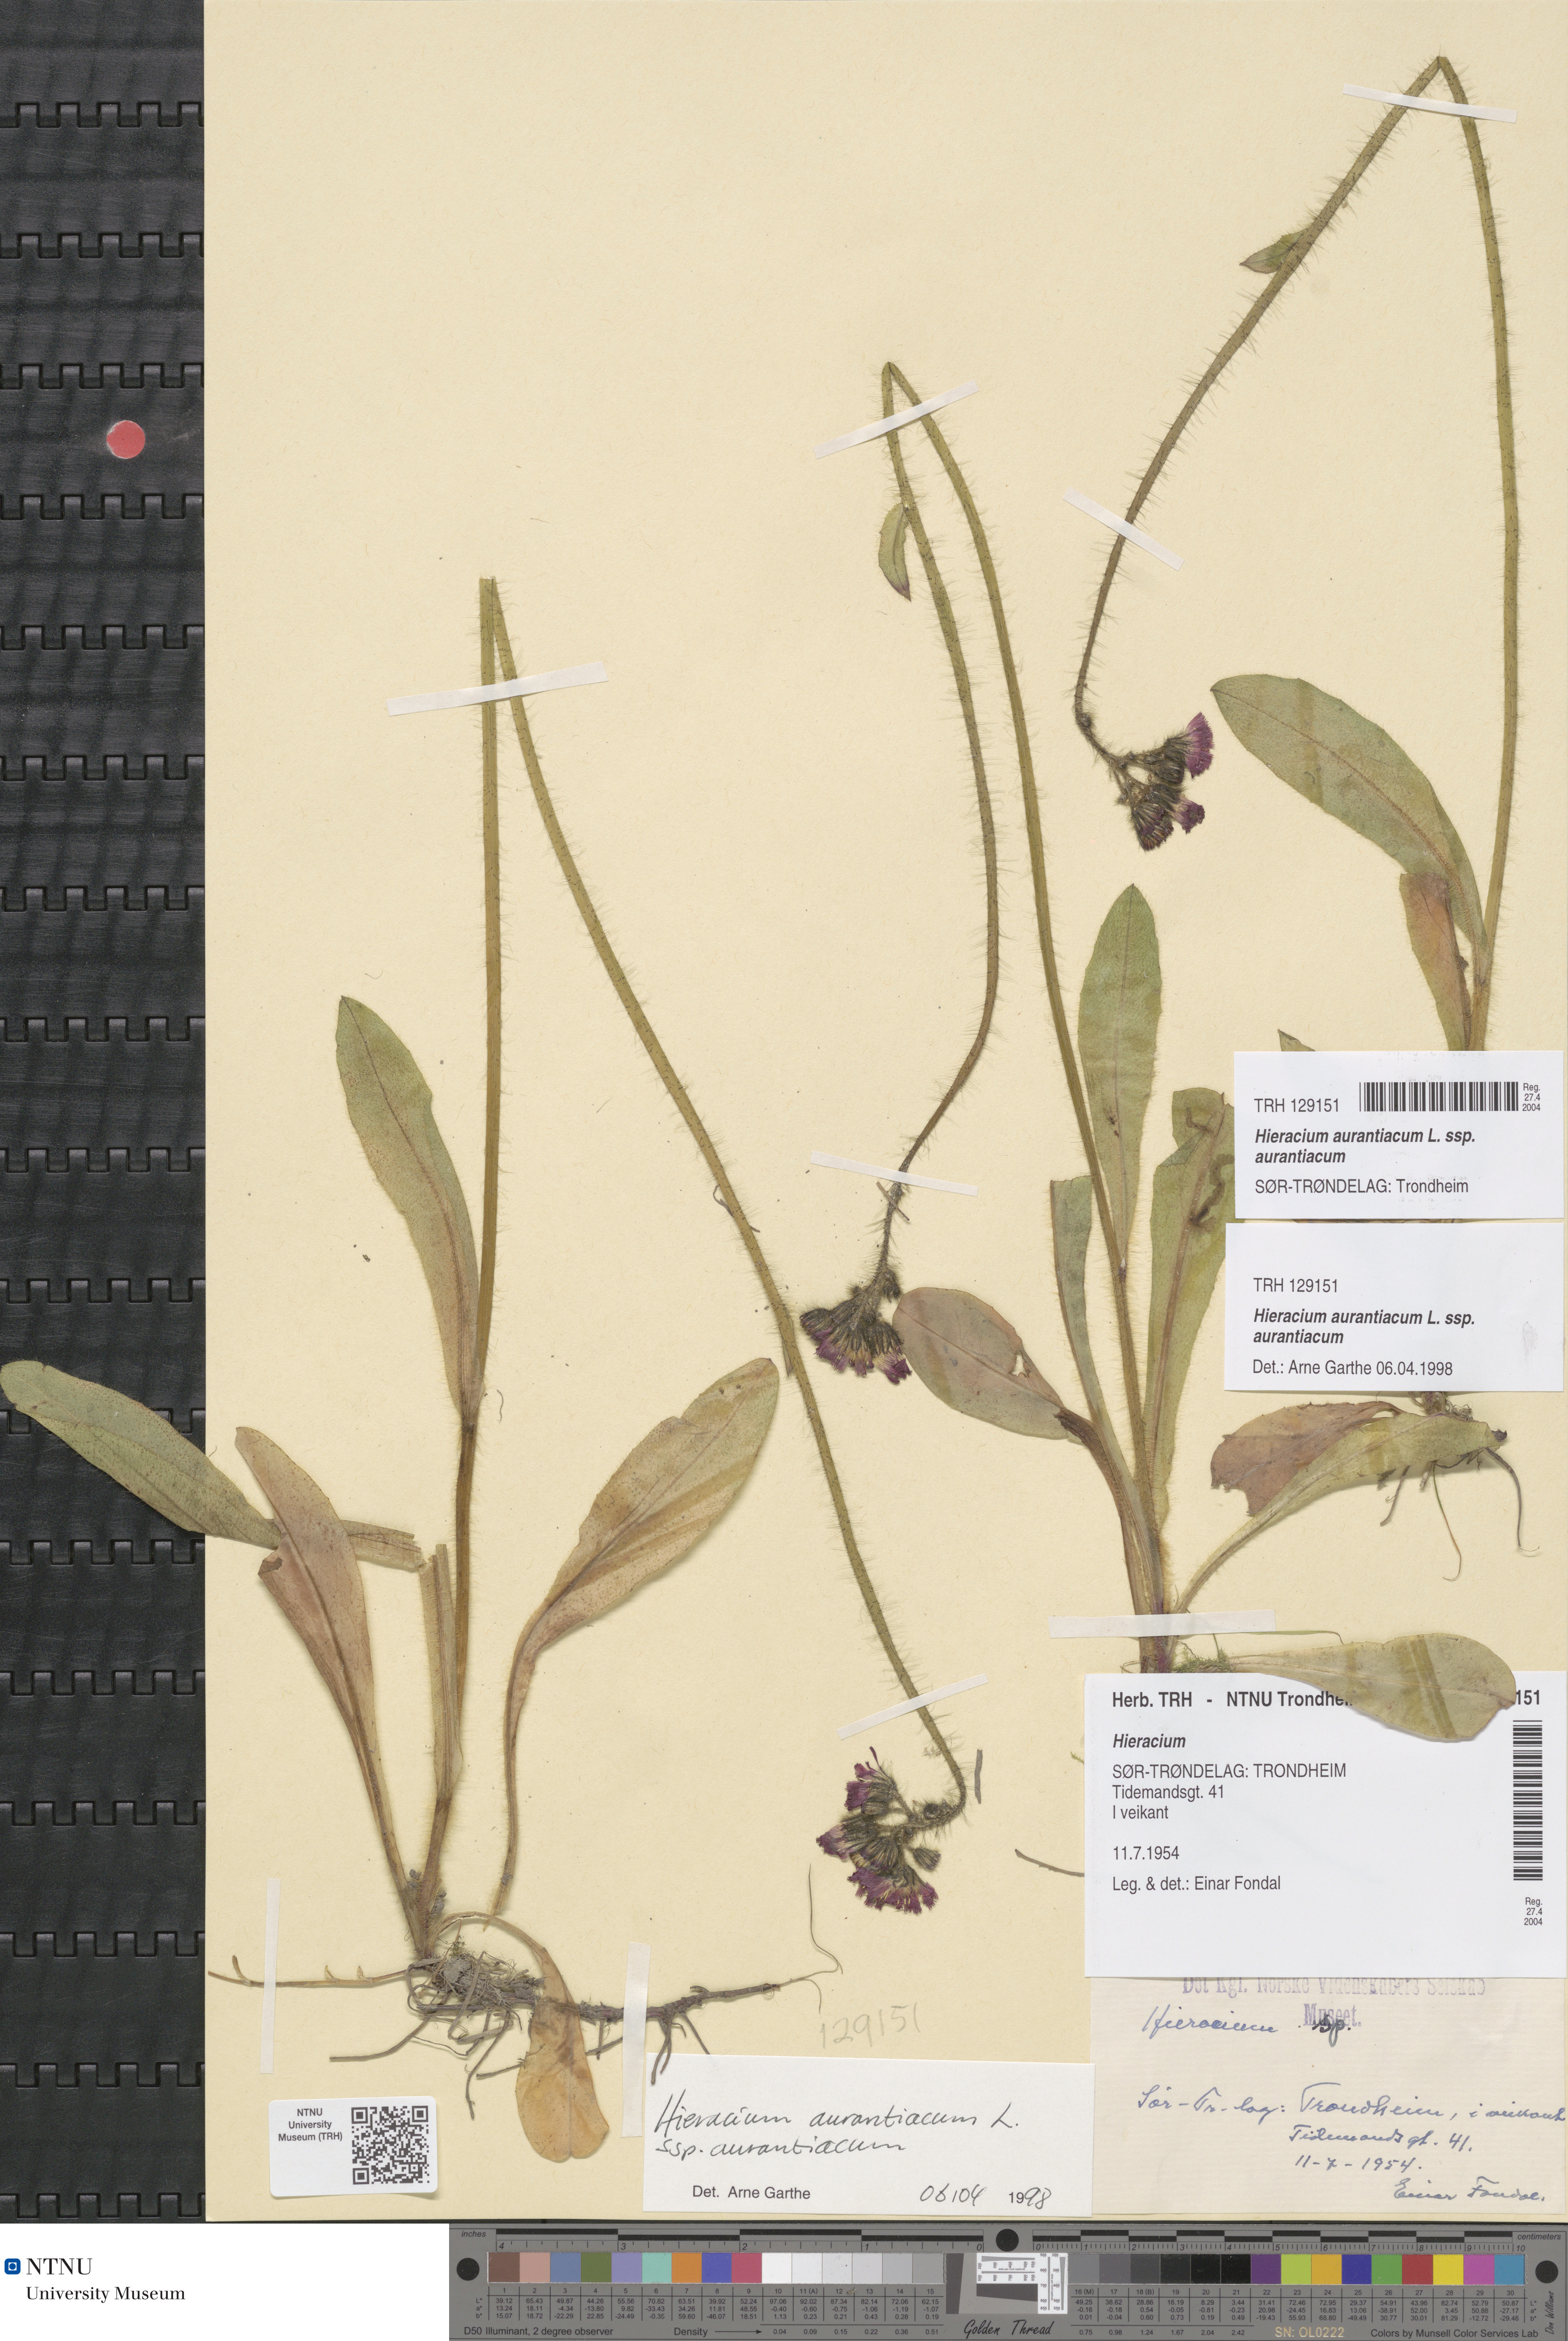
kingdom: Plantae
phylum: Tracheophyta
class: Magnoliopsida
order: Asterales
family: Asteraceae
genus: Pilosella
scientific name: Pilosella aurantiaca
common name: Fox-and-cubs
